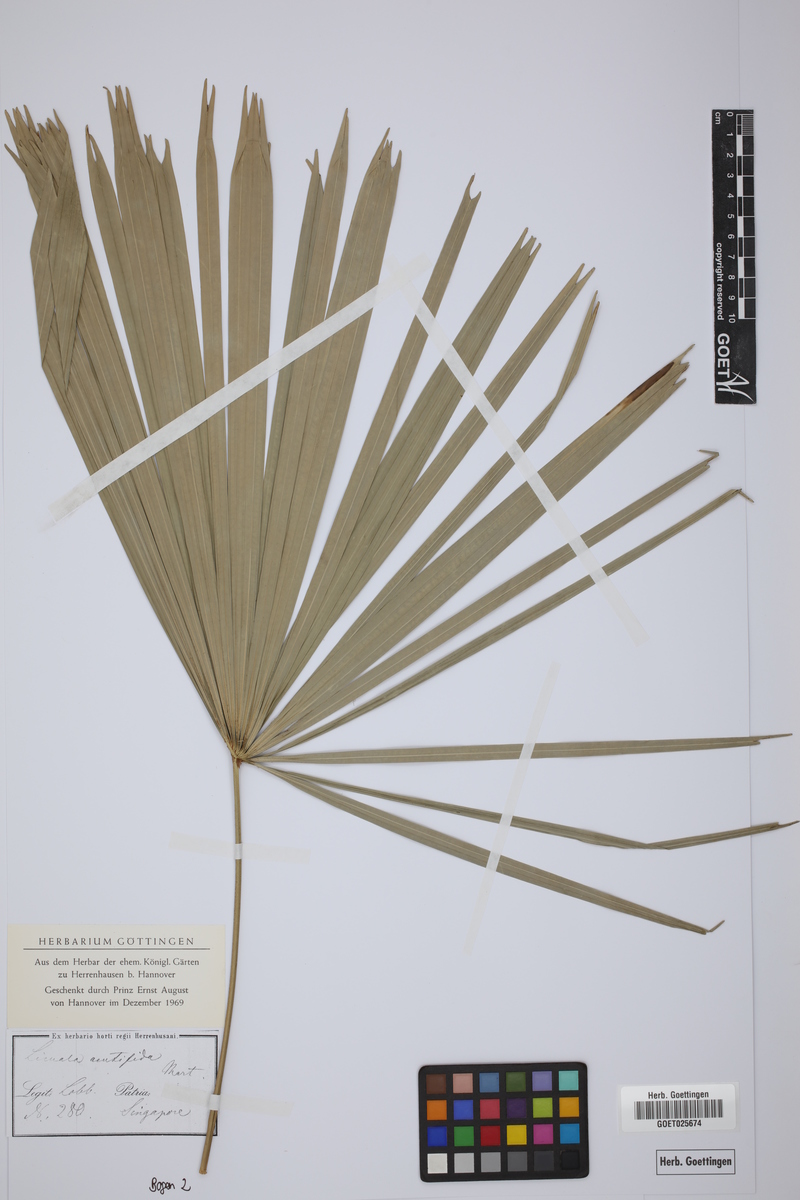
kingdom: Plantae
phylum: Tracheophyta
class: Liliopsida
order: Arecales
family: Arecaceae
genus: Licuala
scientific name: Licuala acutifida
